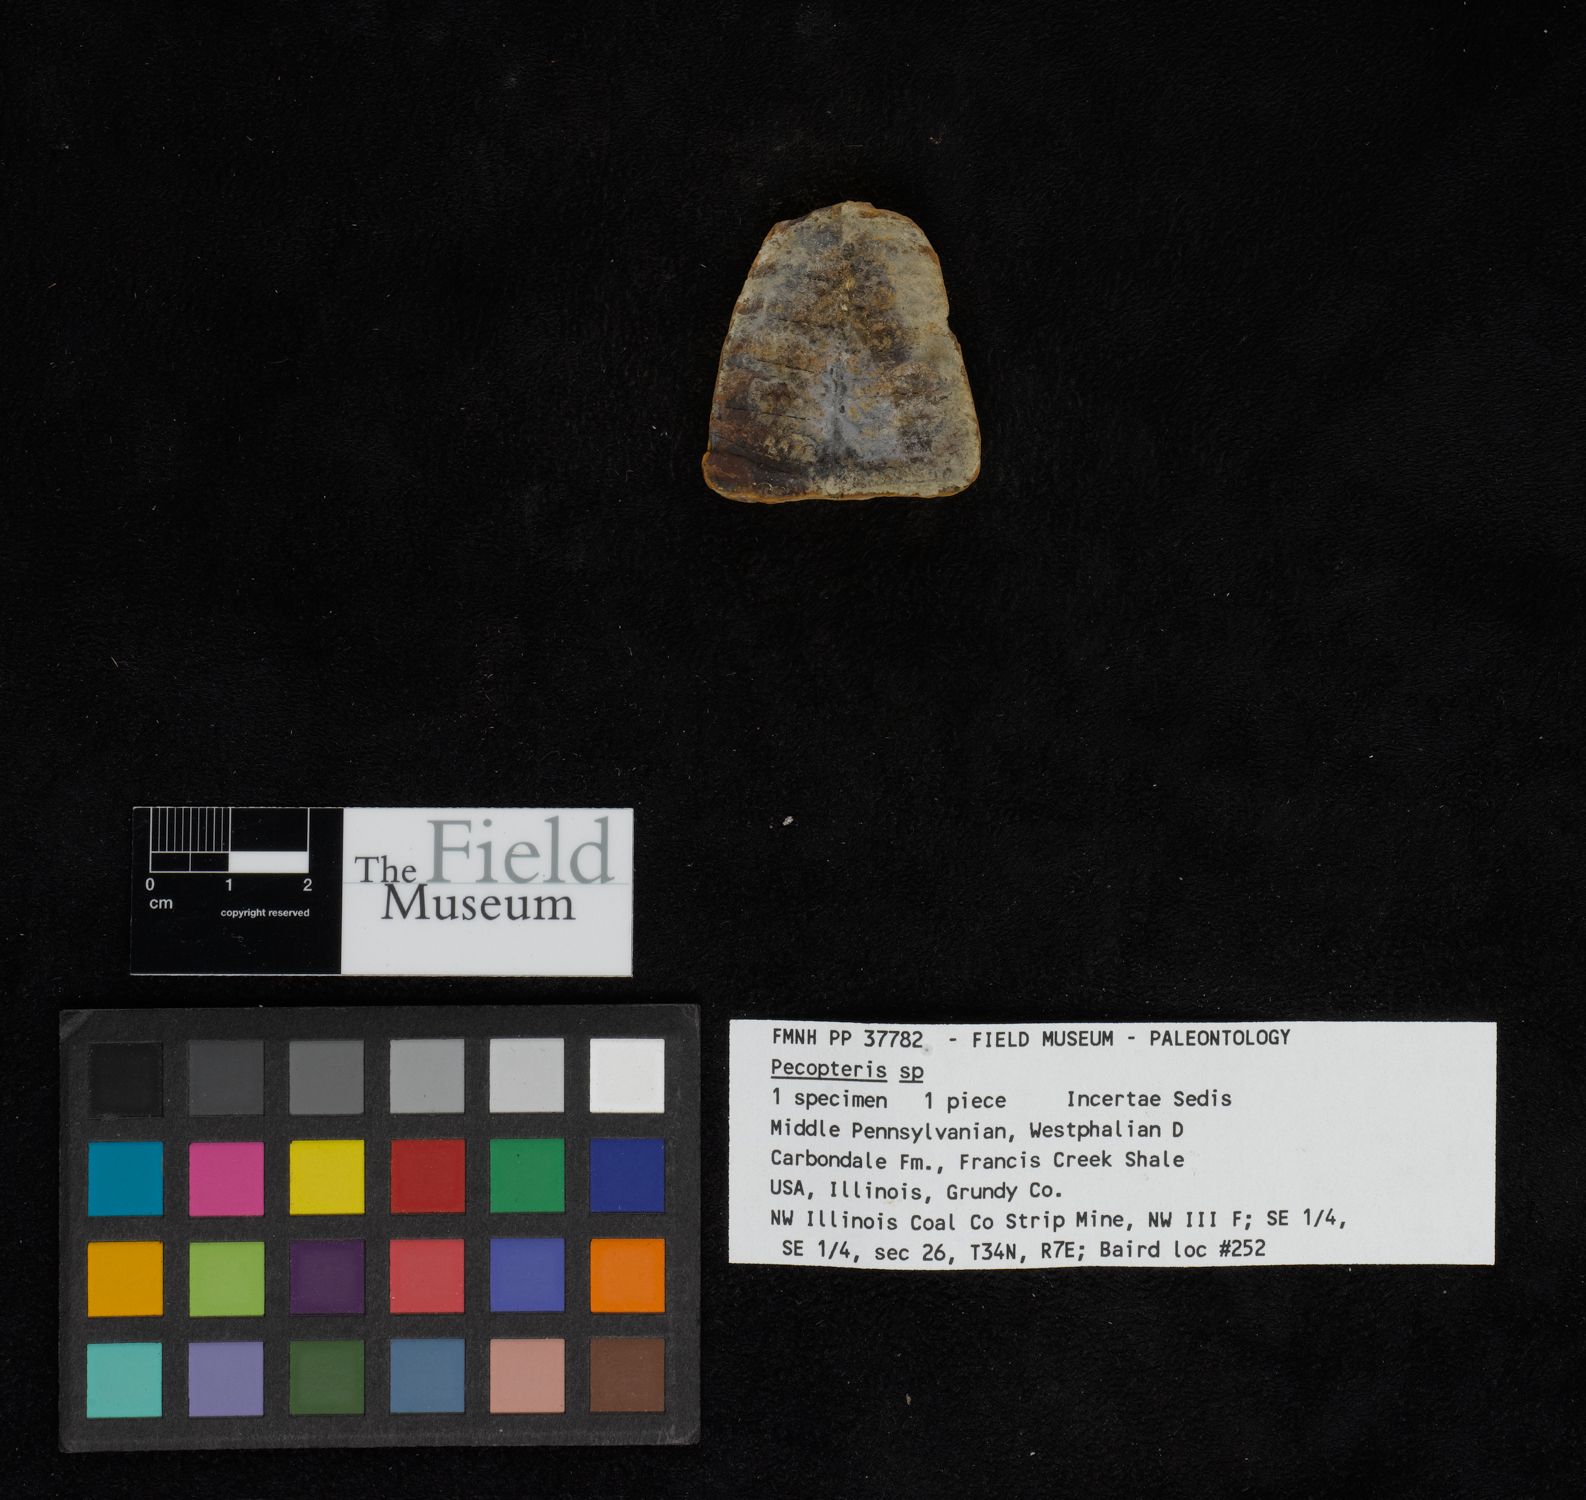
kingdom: Plantae
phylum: Tracheophyta
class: Polypodiopsida
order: Marattiales
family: Asterothecaceae
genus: Pecopteris
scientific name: Pecopteris
